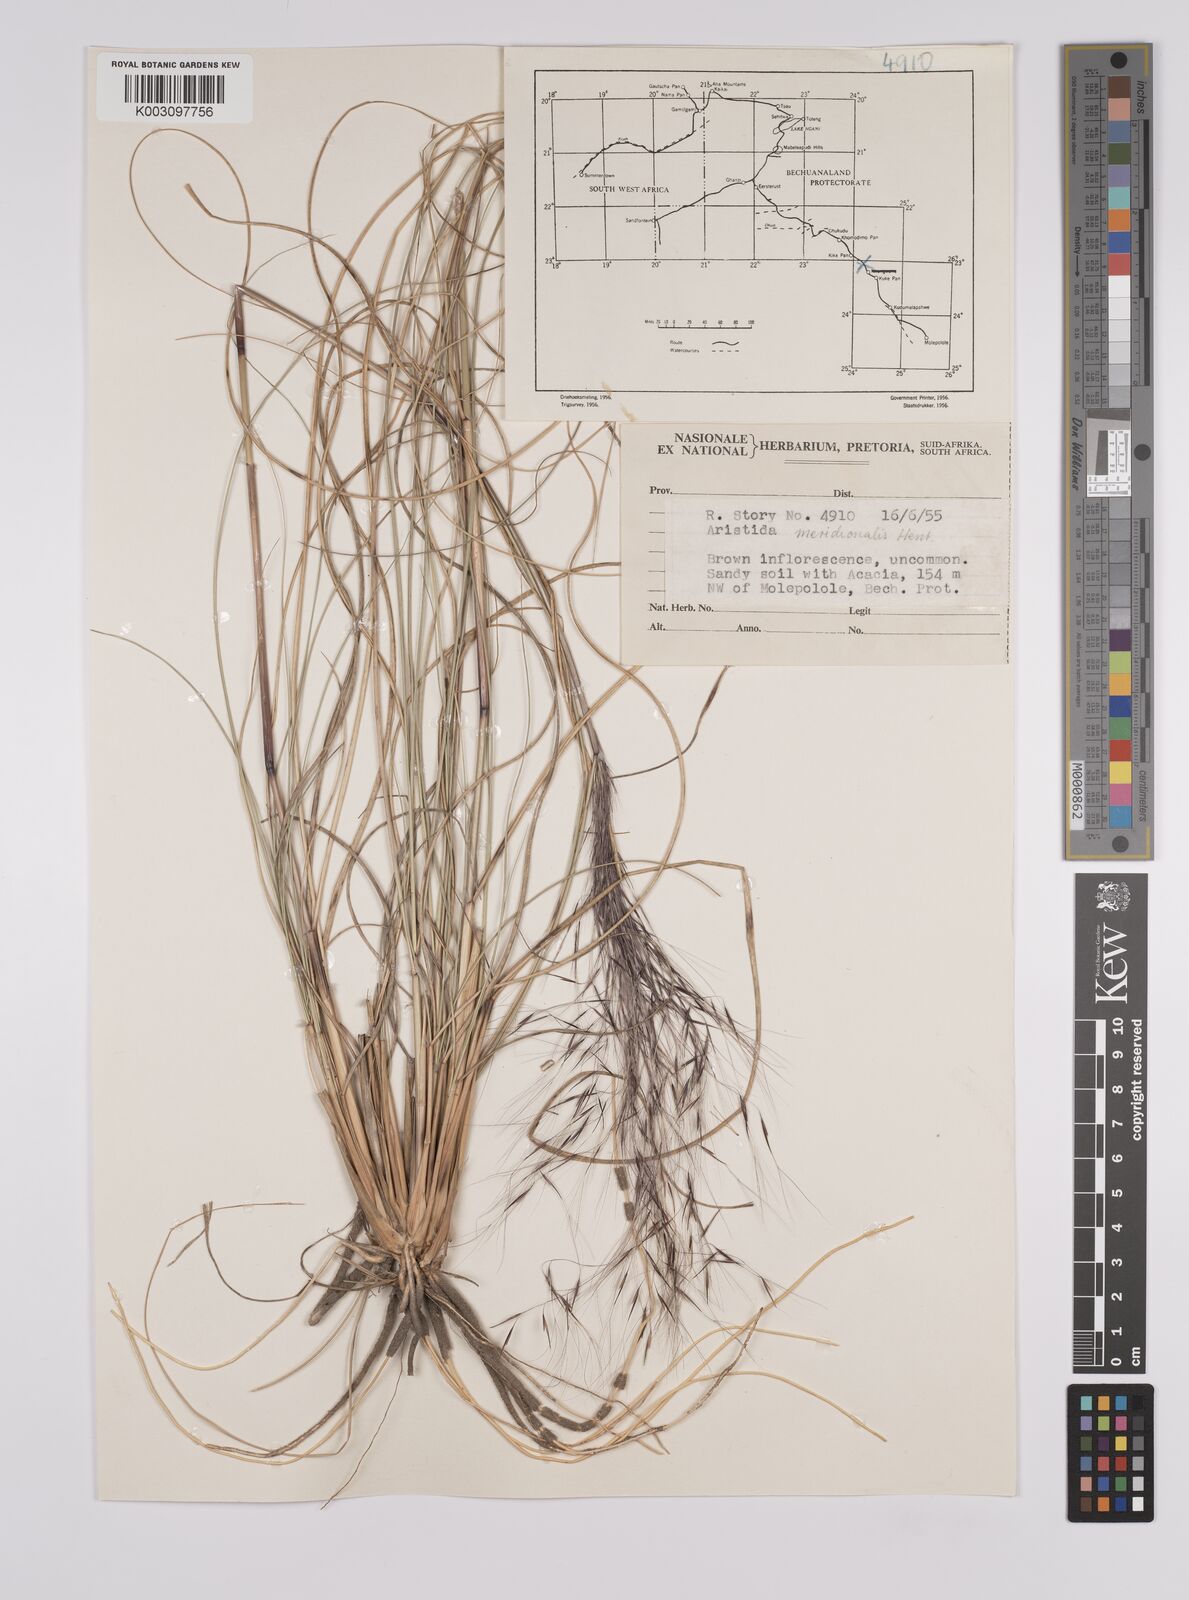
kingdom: Plantae
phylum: Tracheophyta
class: Liliopsida
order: Poales
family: Poaceae
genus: Aristida
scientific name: Aristida meridionalis
